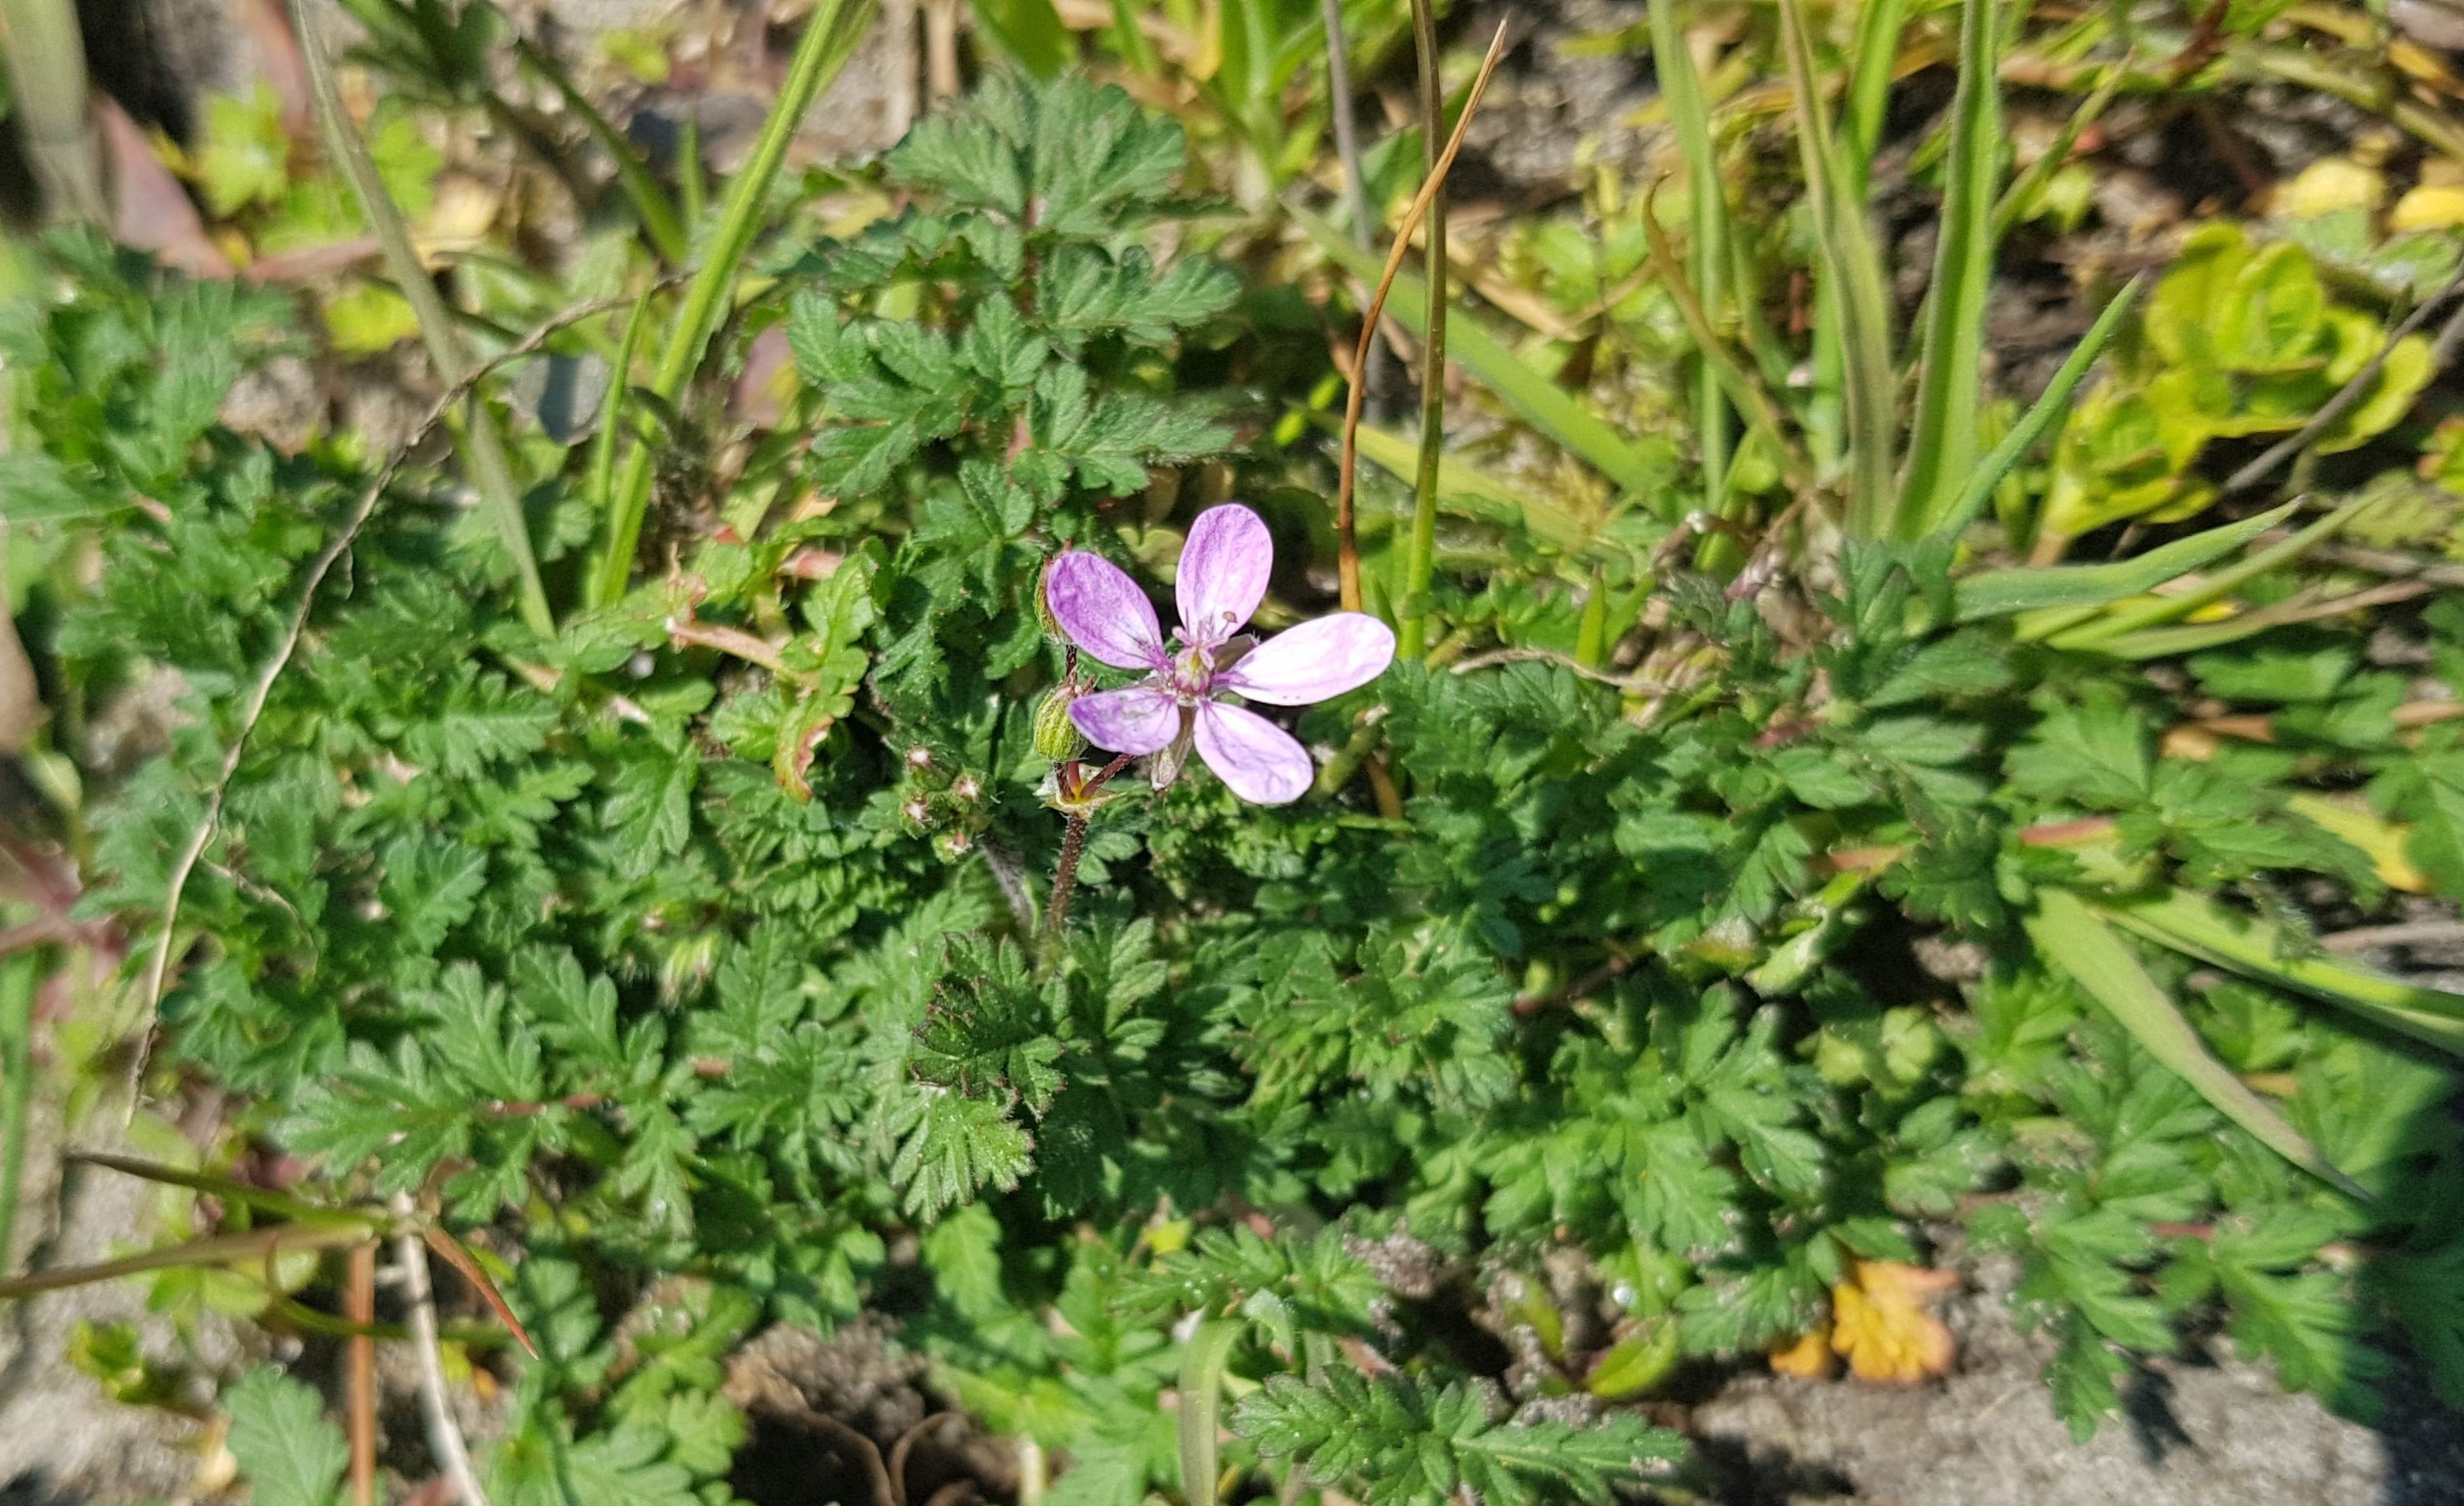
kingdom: Plantae
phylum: Tracheophyta
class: Magnoliopsida
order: Geraniales
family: Geraniaceae
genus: Erodium
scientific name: Erodium cicutarium
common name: Hejrenæb
